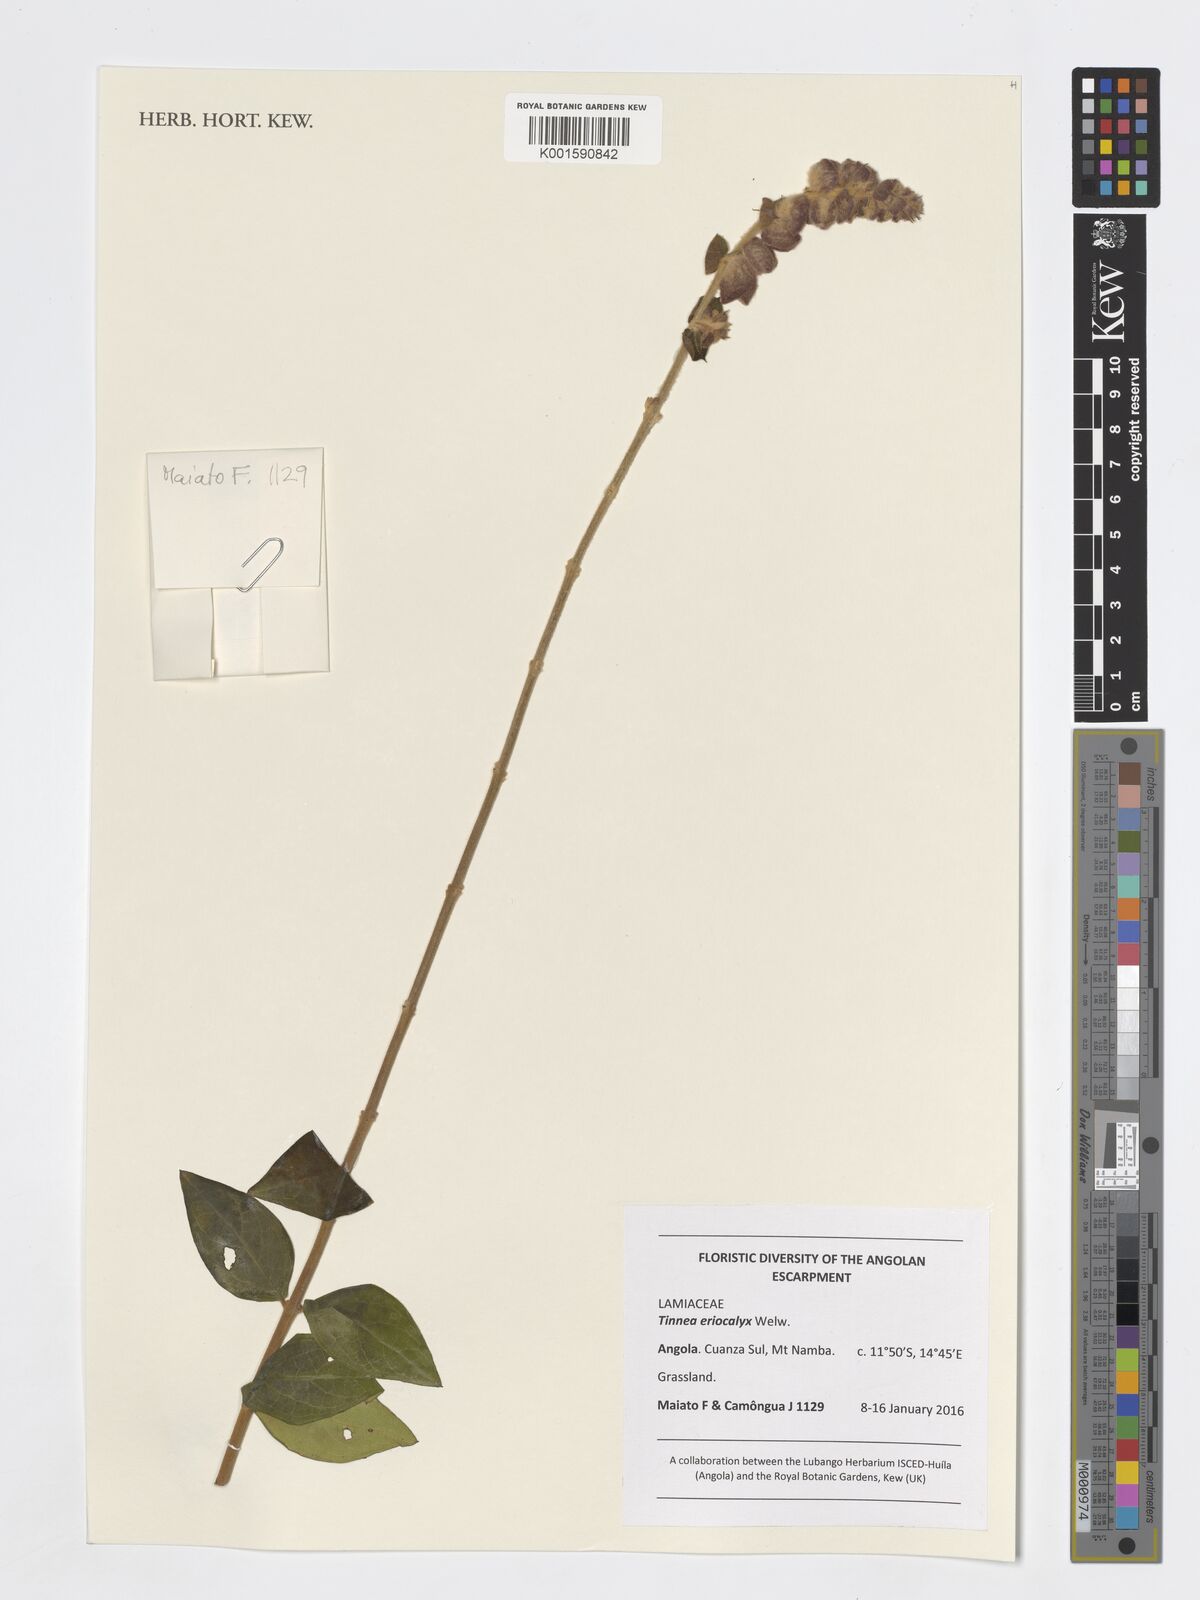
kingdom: Plantae
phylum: Tracheophyta
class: Magnoliopsida
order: Lamiales
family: Lamiaceae
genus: Tinnea
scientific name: Tinnea eriocalyx
